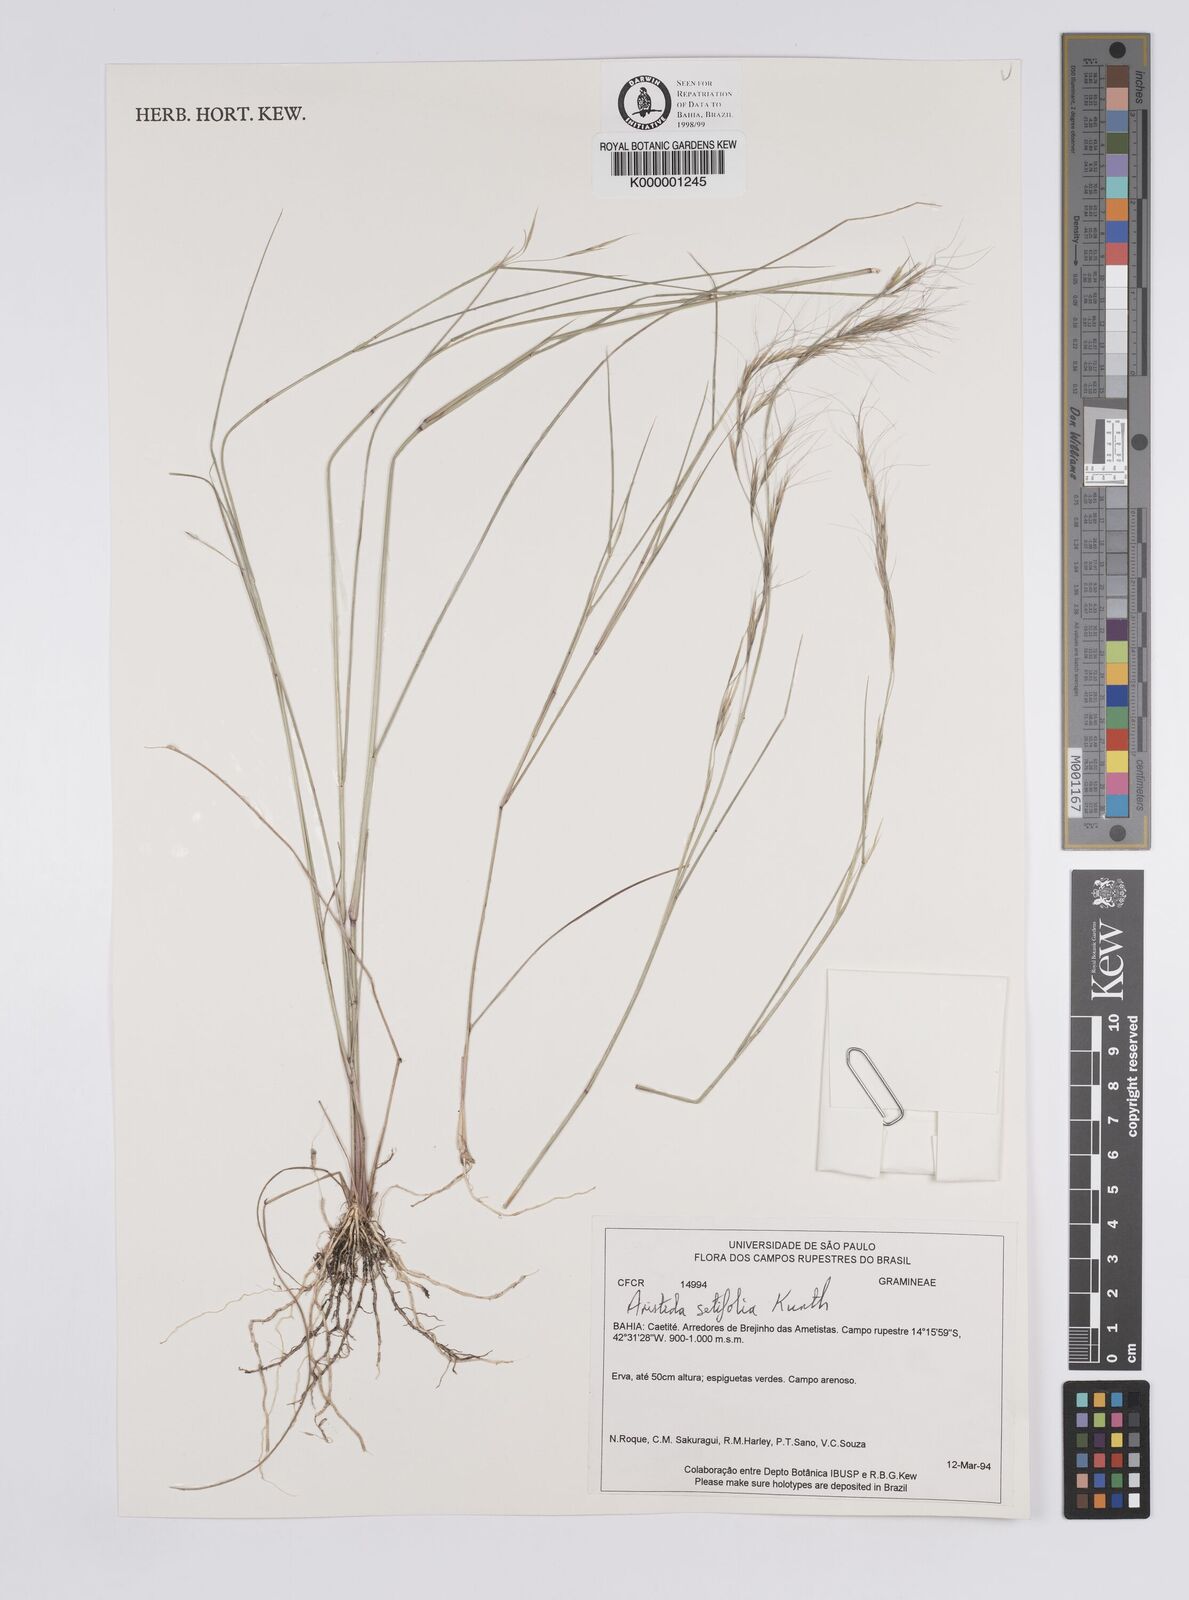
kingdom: Plantae
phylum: Tracheophyta
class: Liliopsida
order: Poales
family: Poaceae
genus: Aristida
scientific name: Aristida setifolia
